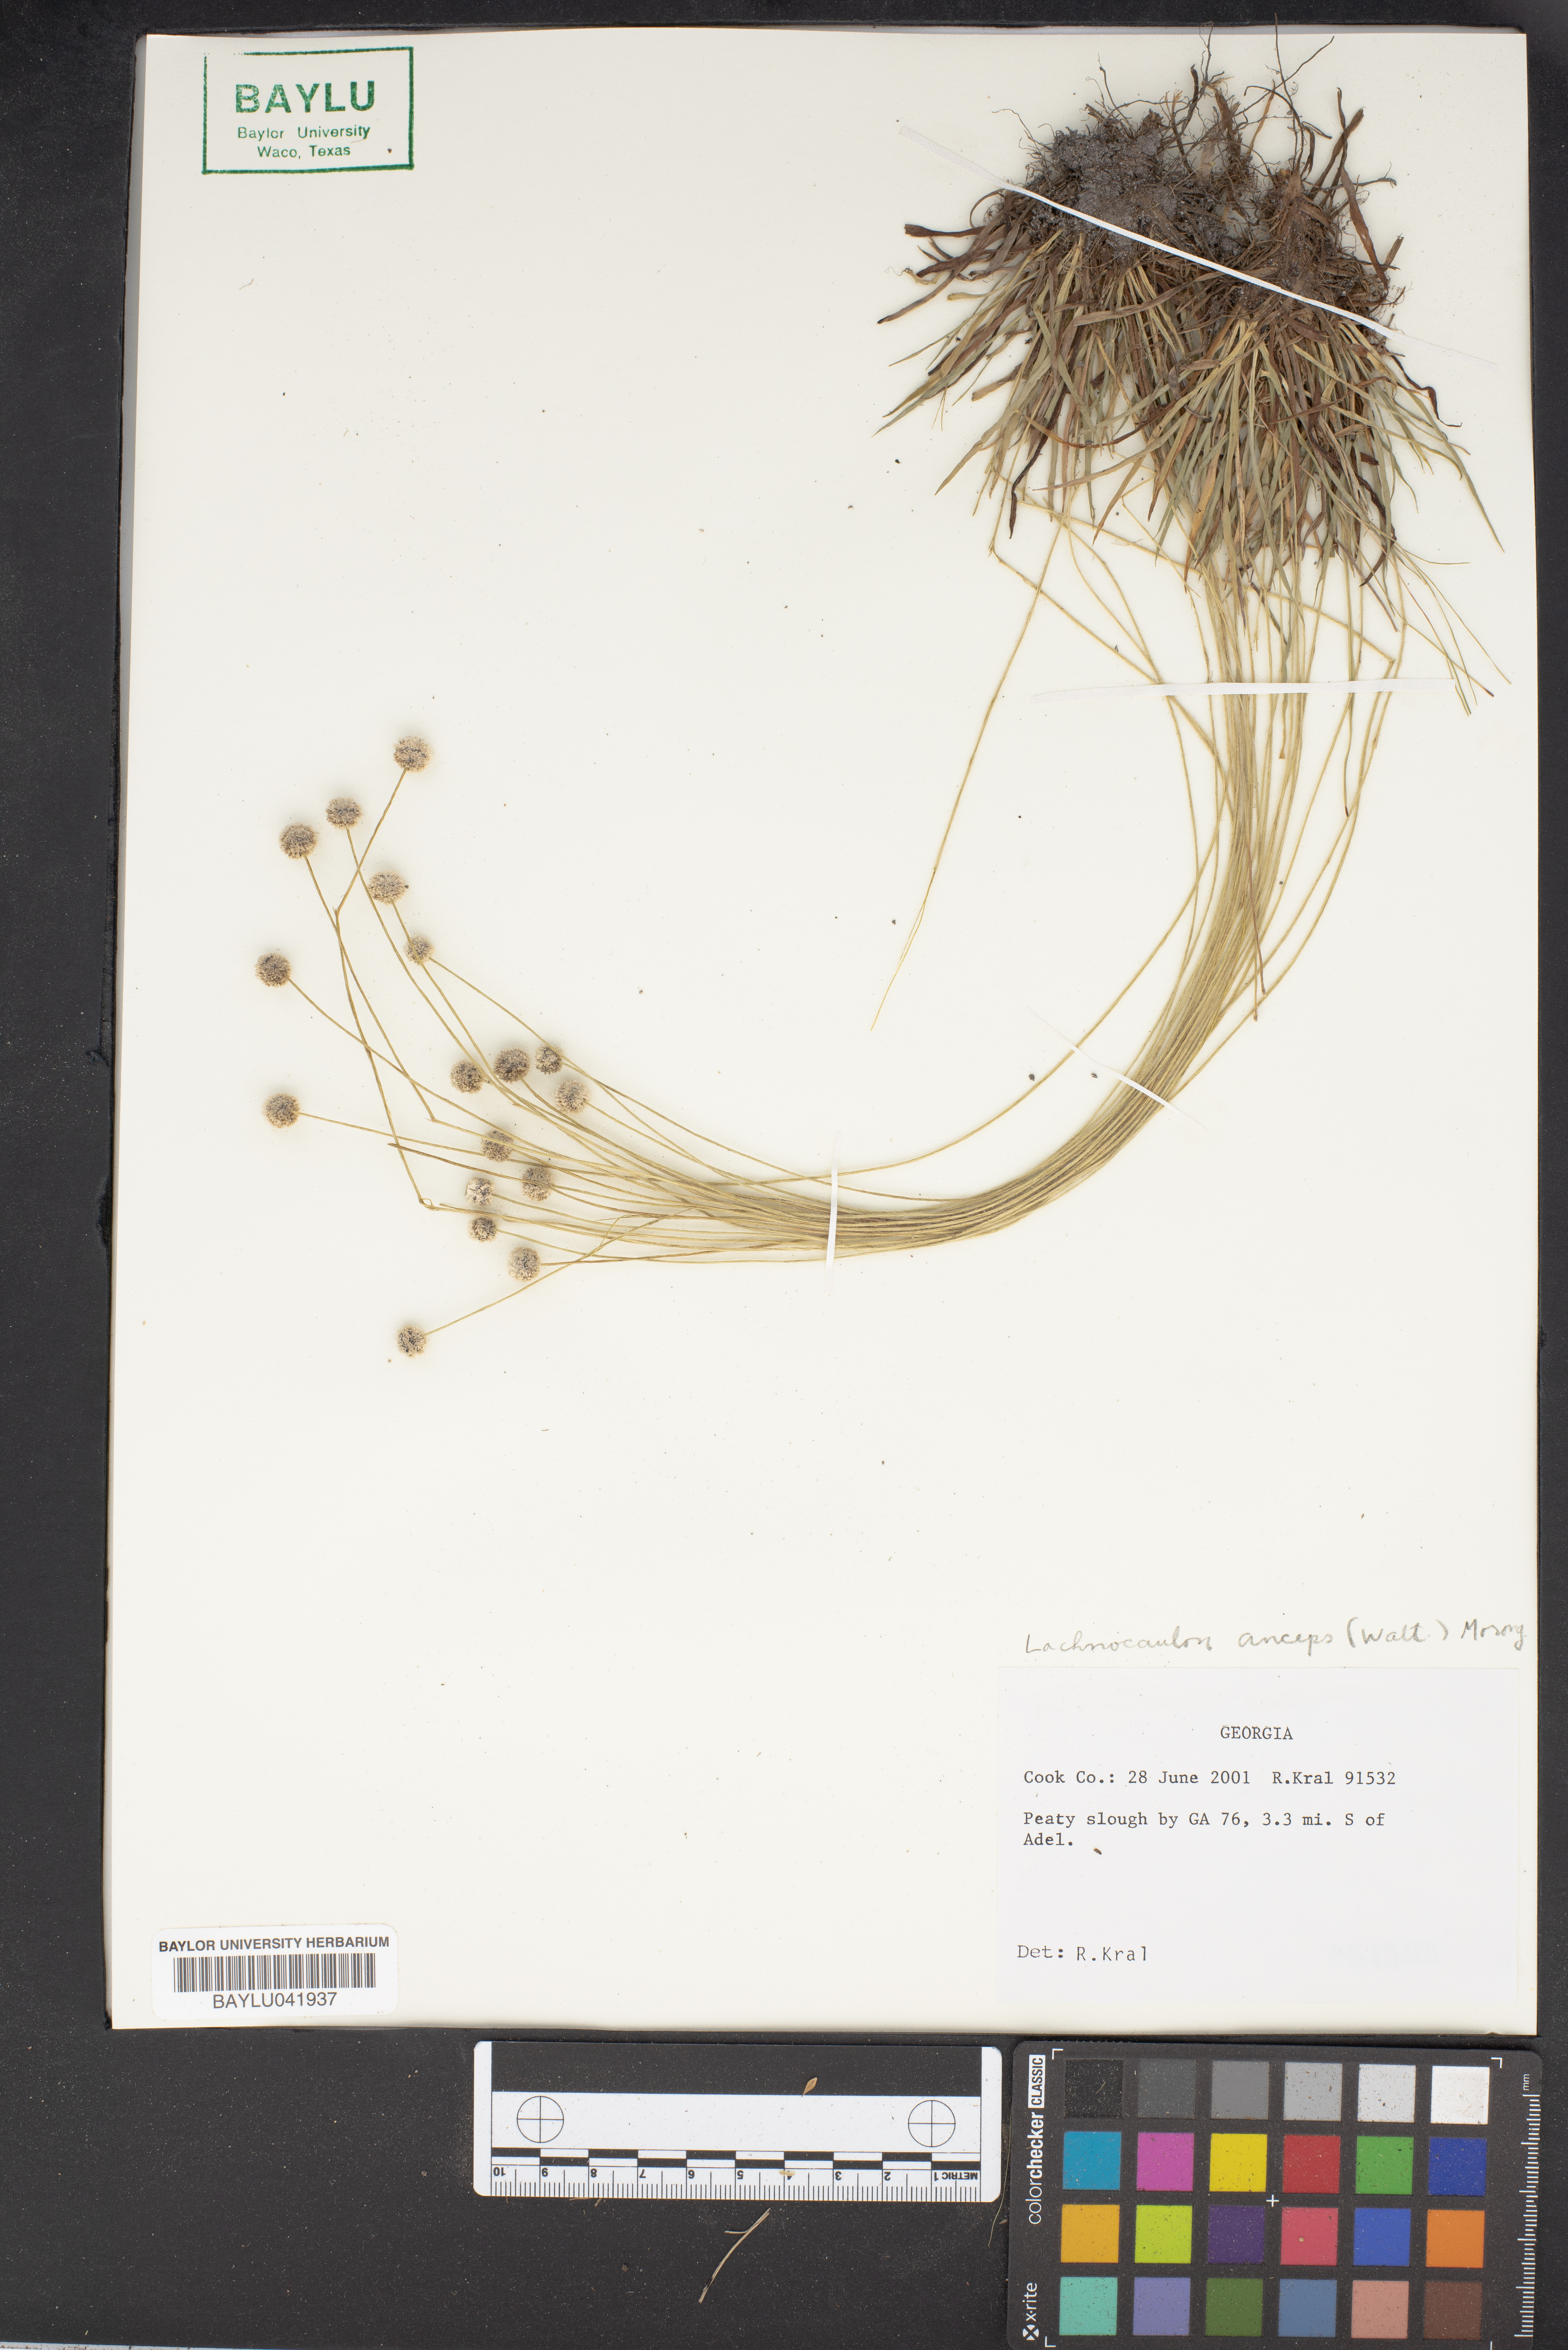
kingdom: Plantae
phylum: Tracheophyta
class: Liliopsida
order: Poales
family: Eriocaulaceae
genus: Paepalanthus
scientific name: Paepalanthus anceps
